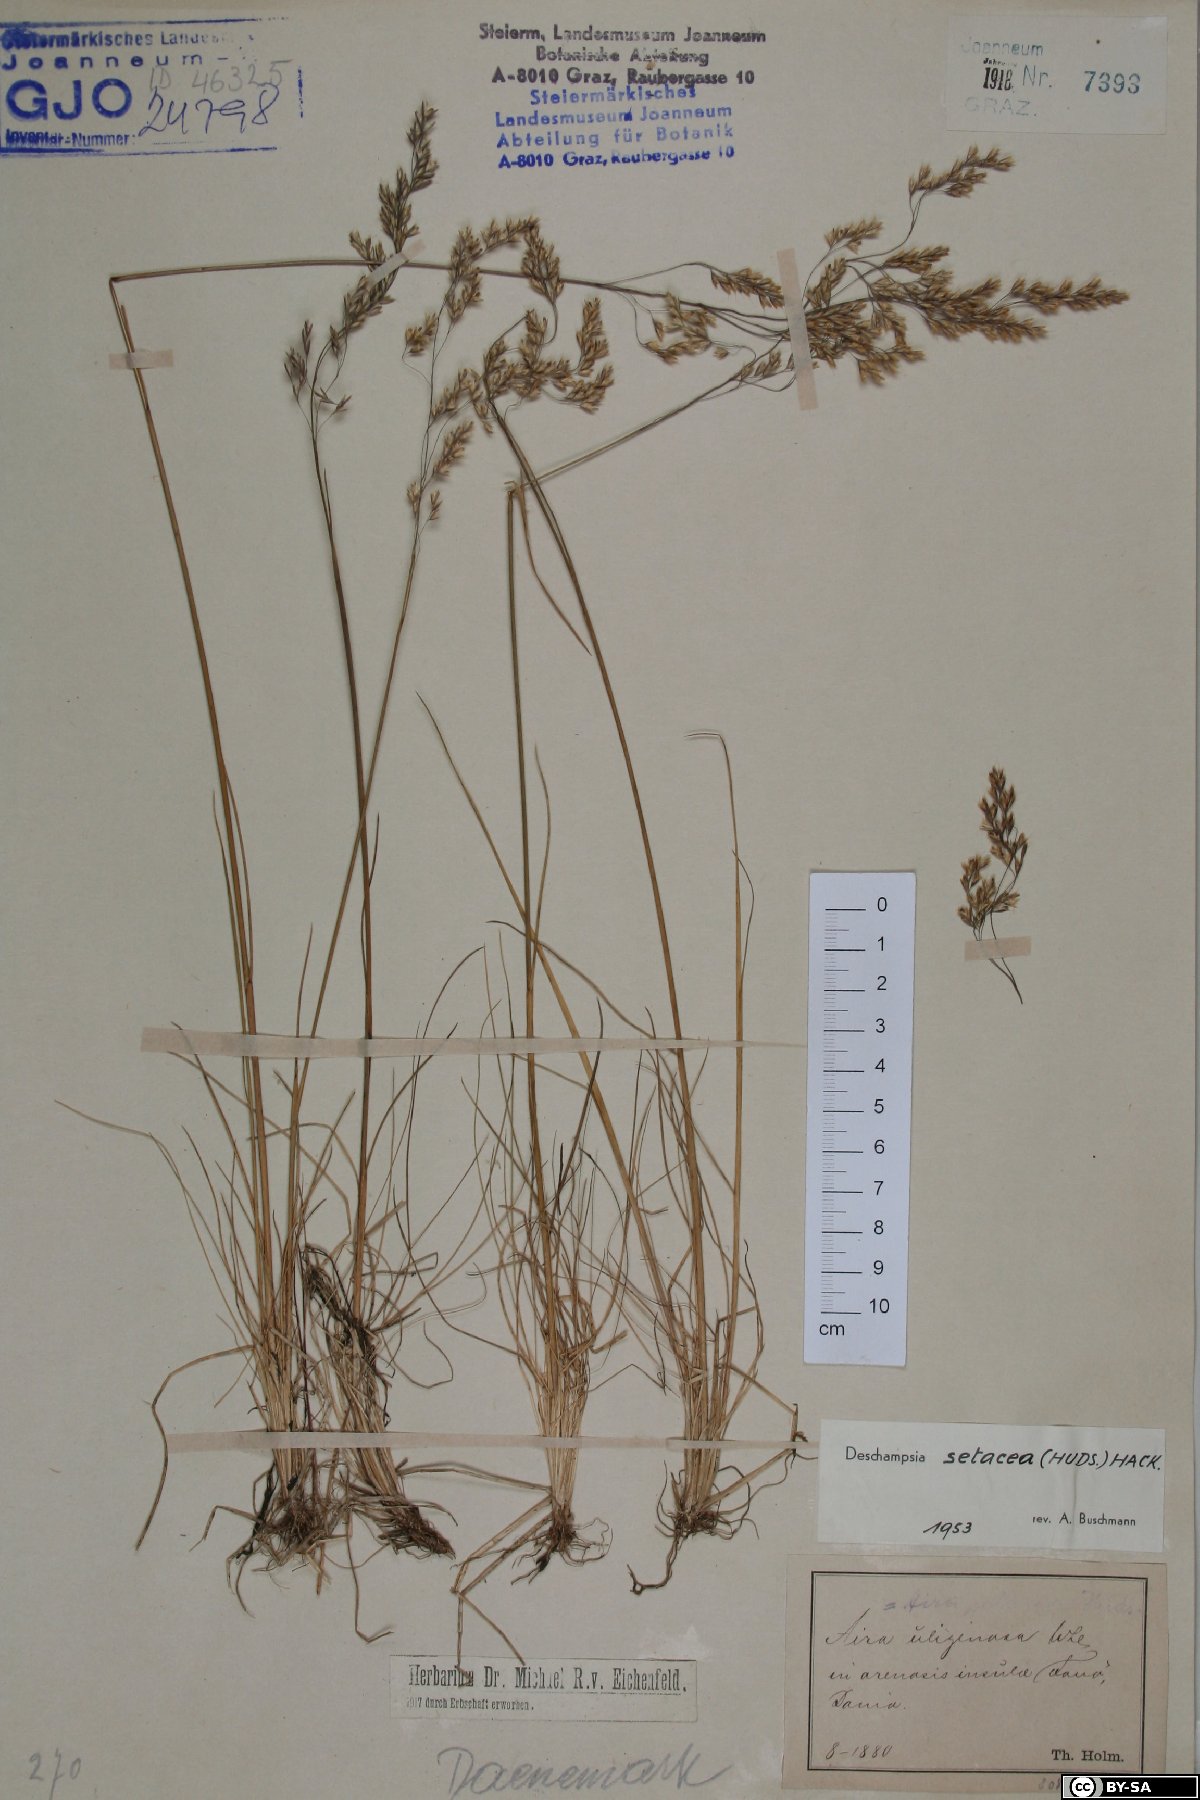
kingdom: Plantae
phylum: Tracheophyta
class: Liliopsida
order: Poales
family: Poaceae
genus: Deschampsia
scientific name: Deschampsia setacea
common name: Bog hair-grass
